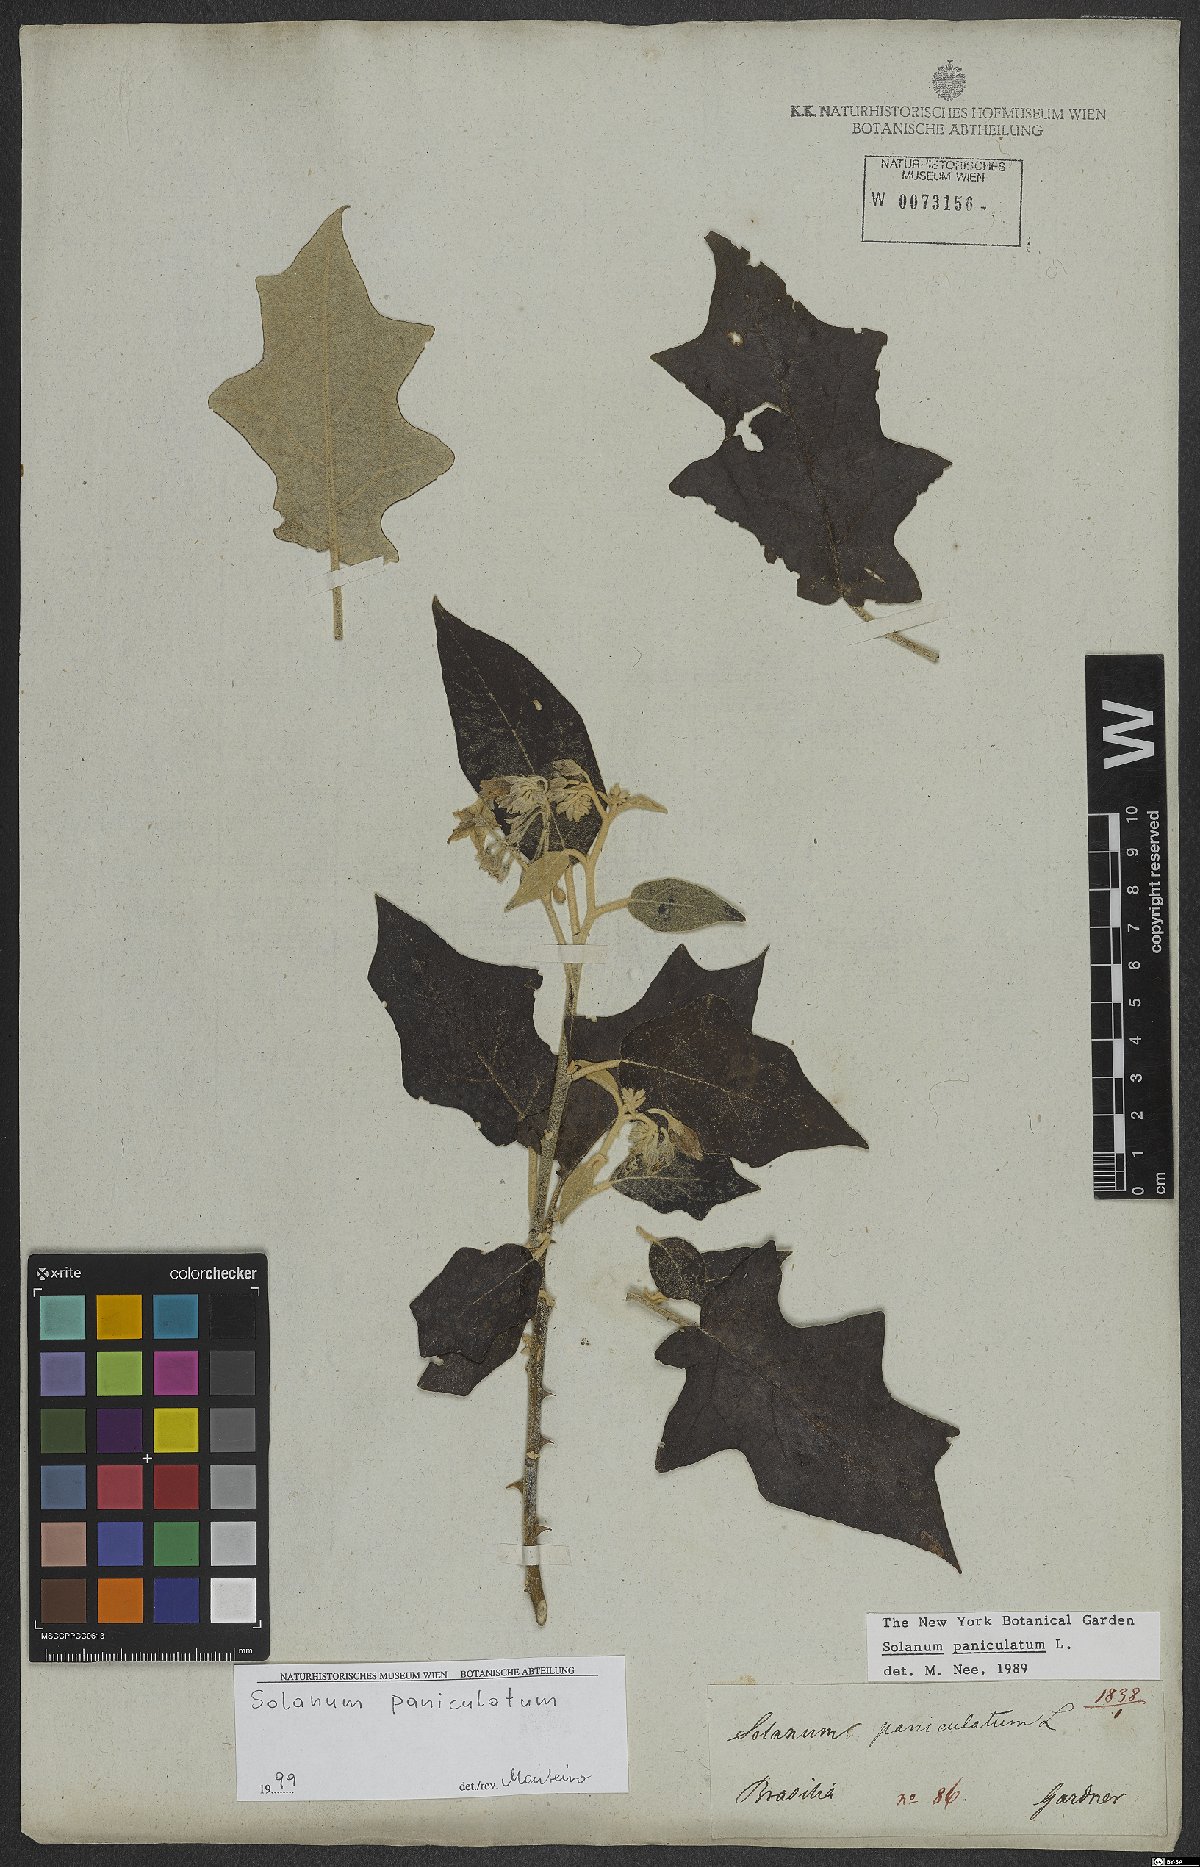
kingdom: Plantae
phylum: Tracheophyta
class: Magnoliopsida
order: Solanales
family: Solanaceae
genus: Solanum
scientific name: Solanum paniculatum
